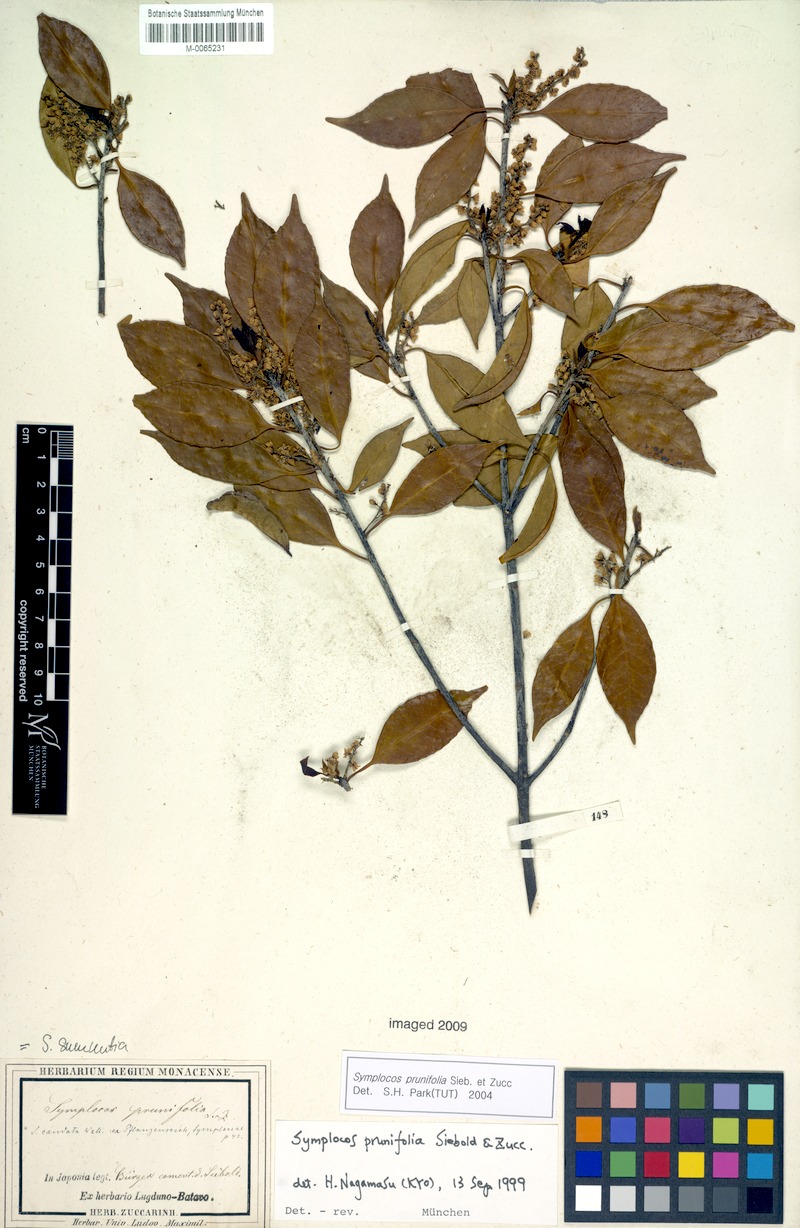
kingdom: Plantae
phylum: Tracheophyta
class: Magnoliopsida
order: Ericales
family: Symplocaceae
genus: Symplocos
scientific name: Symplocos sumuntia
